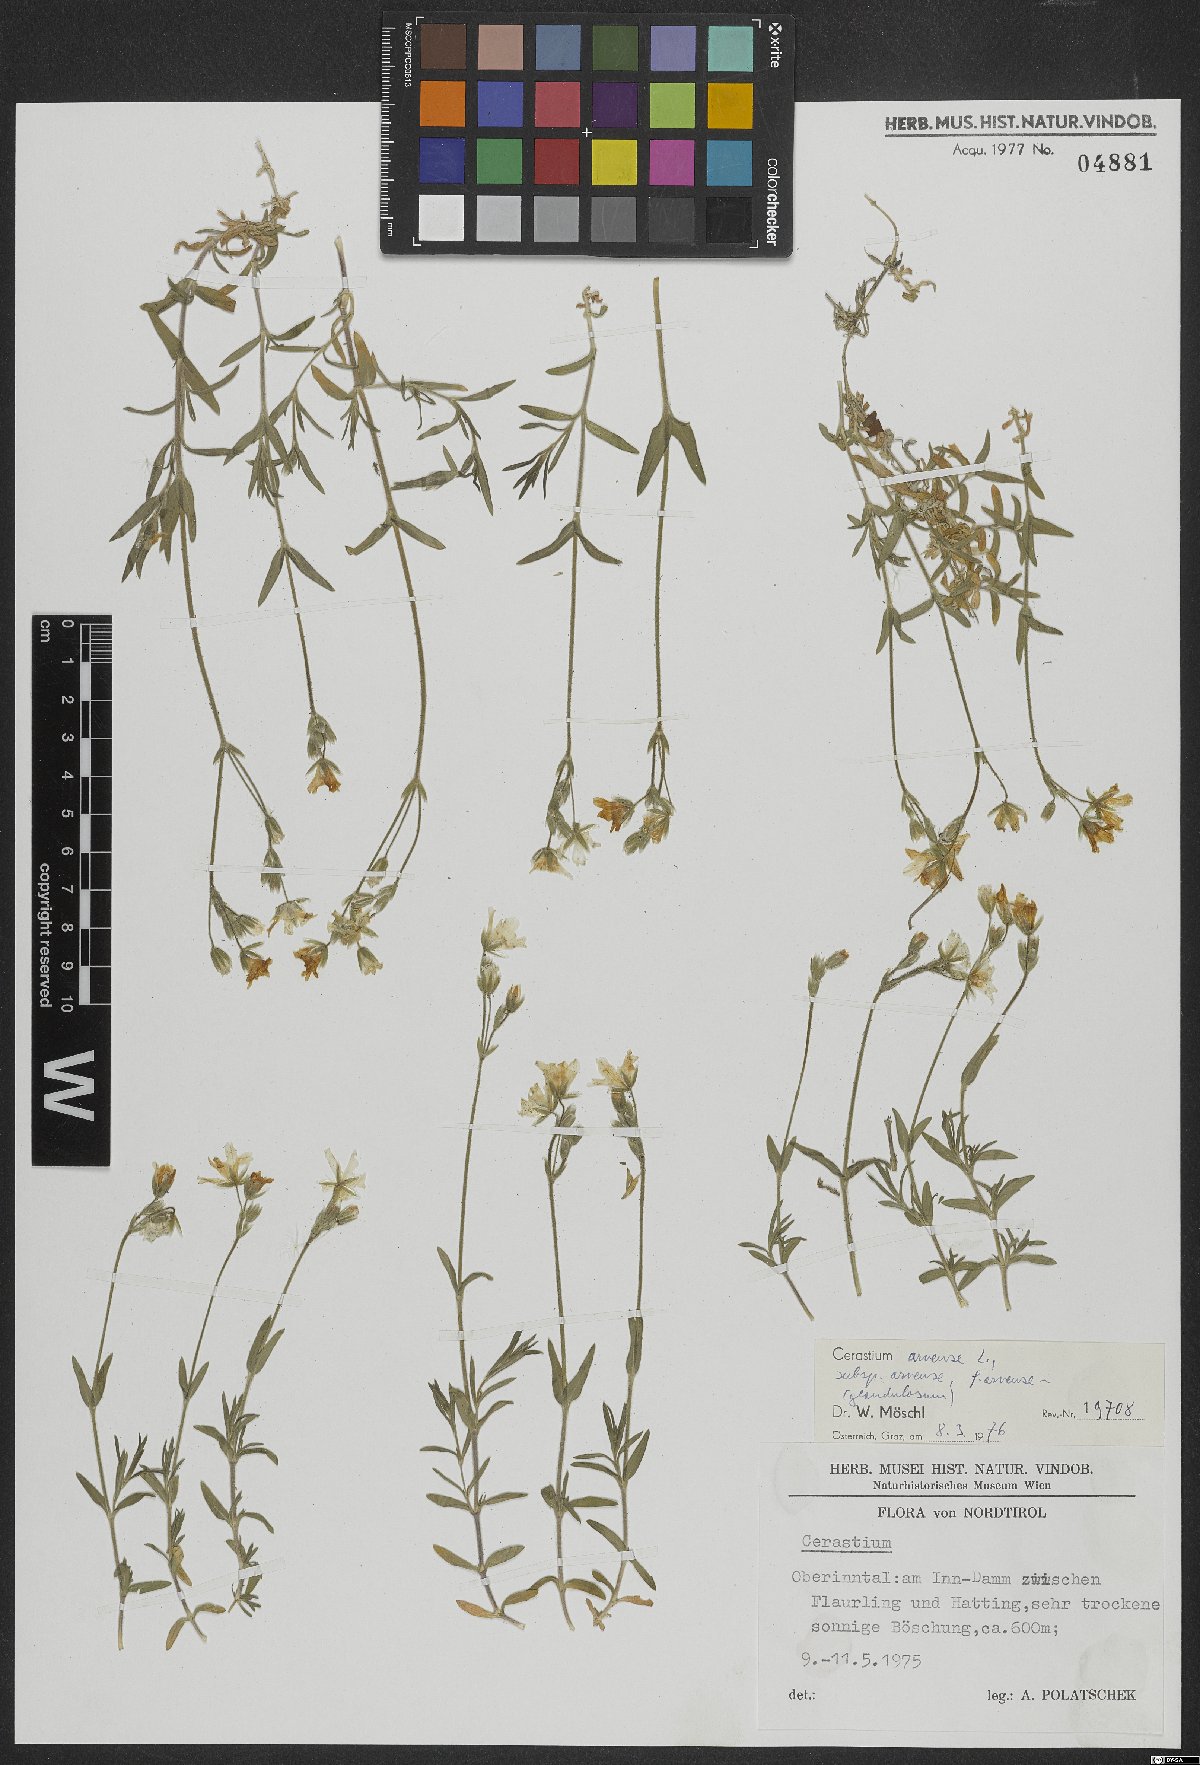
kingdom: Plantae
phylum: Tracheophyta
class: Magnoliopsida
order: Caryophyllales
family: Caryophyllaceae
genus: Cerastium
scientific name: Cerastium arvense
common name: Field mouse-ear
